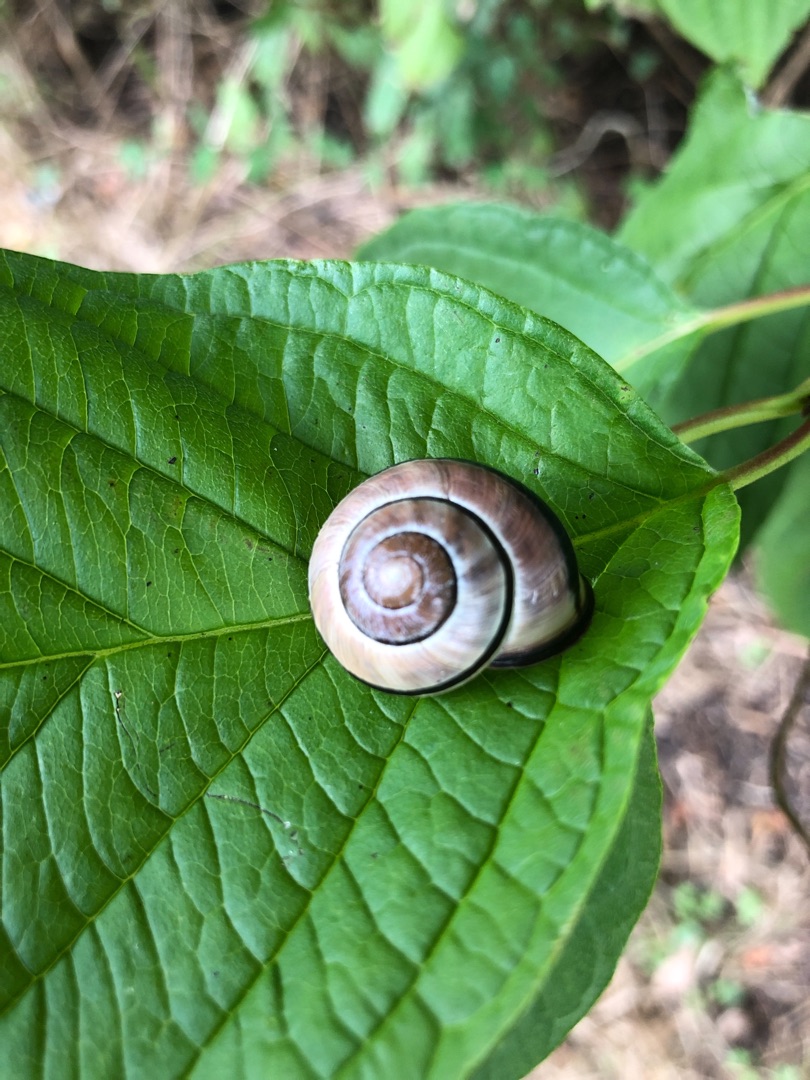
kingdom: Animalia
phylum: Mollusca
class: Gastropoda
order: Stylommatophora
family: Helicidae
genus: Cepaea
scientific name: Cepaea nemoralis
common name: Lundsnegl
